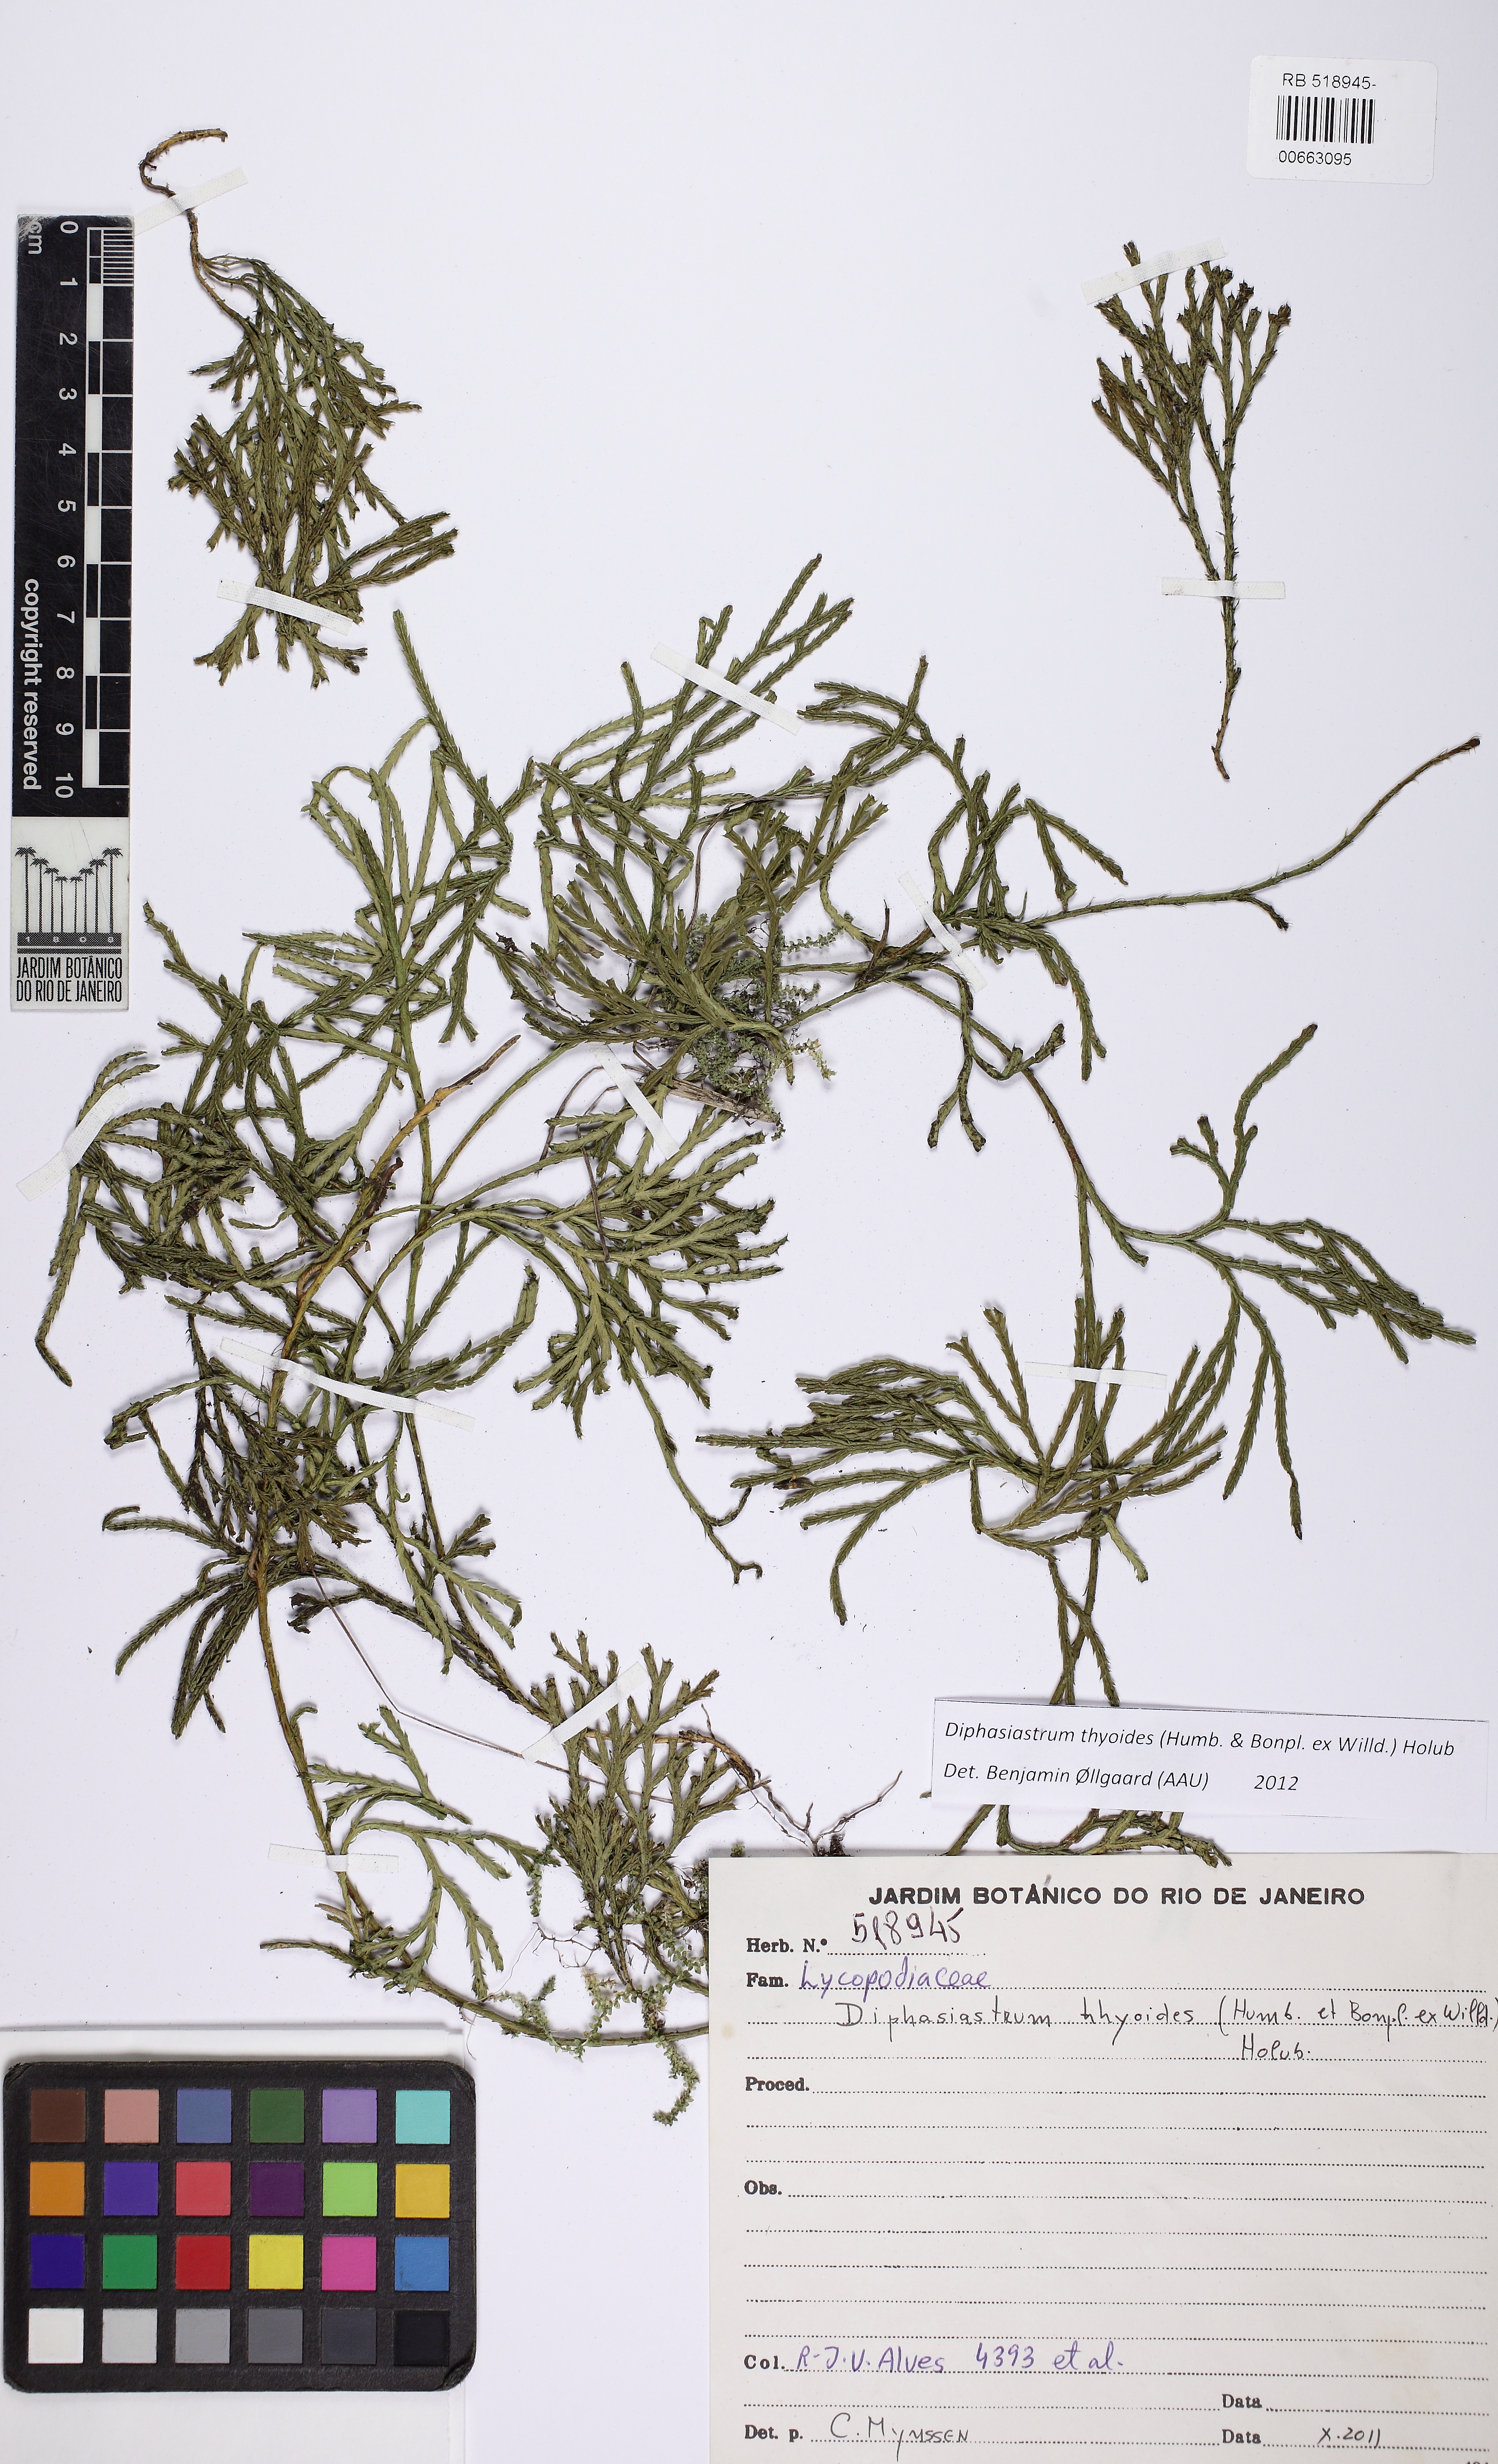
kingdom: Plantae
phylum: Tracheophyta
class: Lycopodiopsida
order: Lycopodiales
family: Lycopodiaceae
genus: Diphasiastrum
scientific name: Diphasiastrum thyoides
